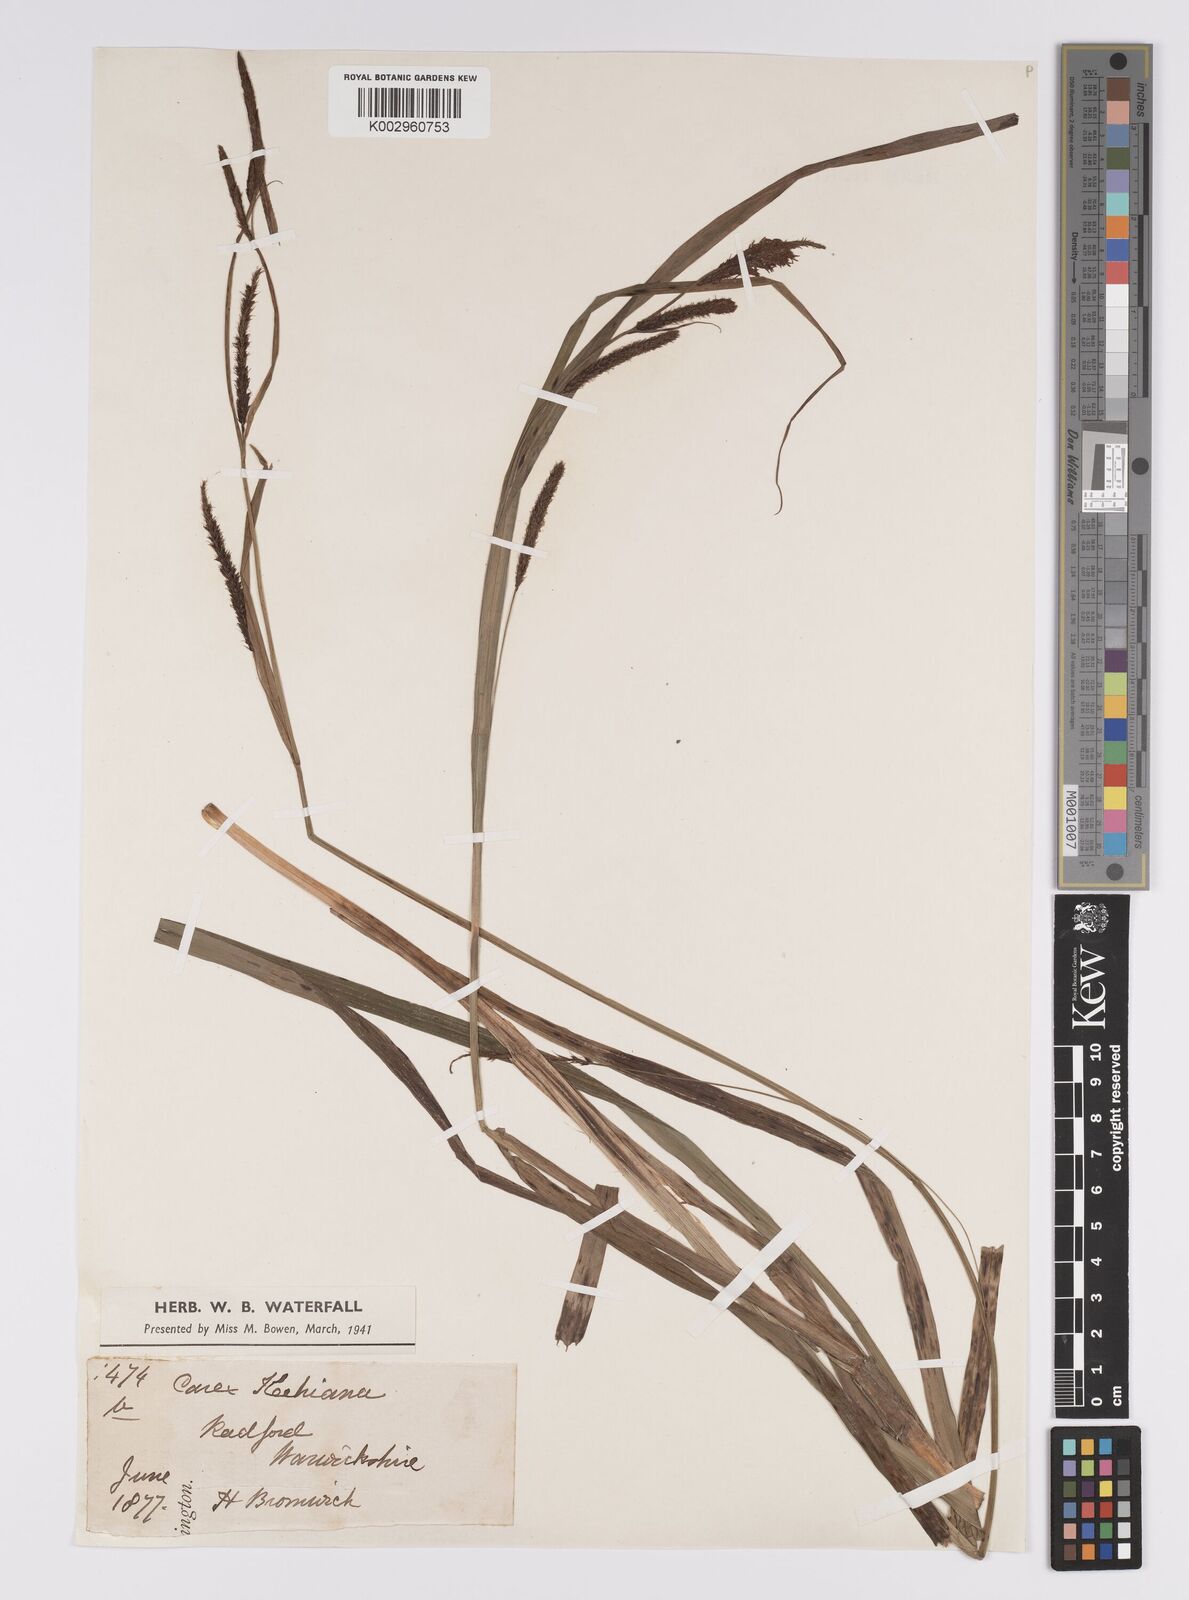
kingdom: Plantae
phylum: Tracheophyta
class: Liliopsida
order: Poales
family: Cyperaceae
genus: Carex
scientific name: Carex acutiformis
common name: Lesser pond-sedge
